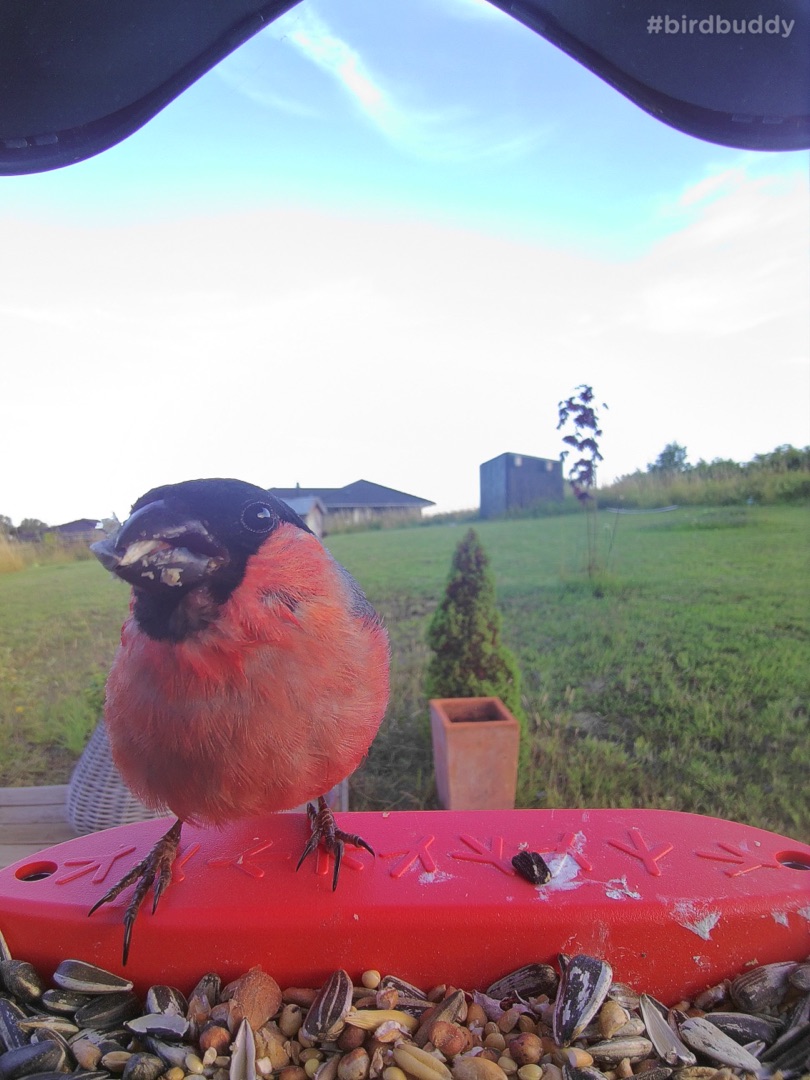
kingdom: Animalia
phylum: Chordata
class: Aves
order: Passeriformes
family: Fringillidae
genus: Pyrrhula
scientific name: Pyrrhula pyrrhula
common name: Dompap
